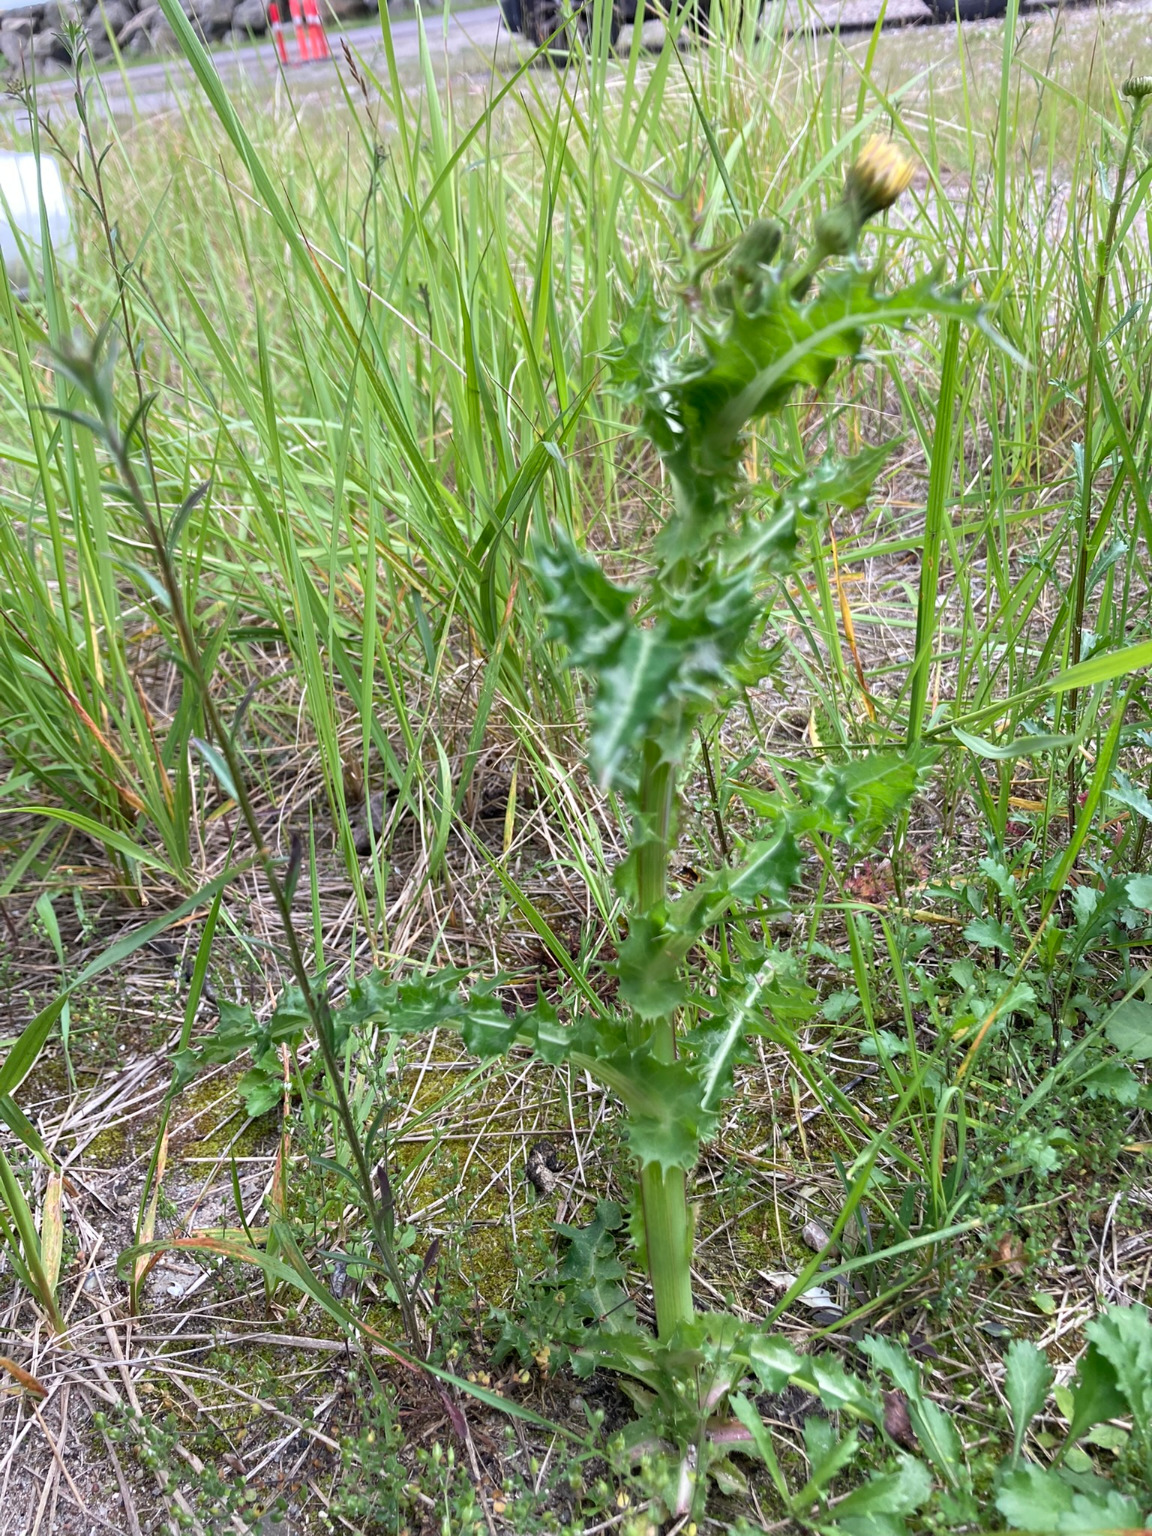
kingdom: Plantae
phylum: Tracheophyta
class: Magnoliopsida
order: Asterales
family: Asteraceae
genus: Sonchus
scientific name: Sonchus asper
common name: Ru svinemælk
